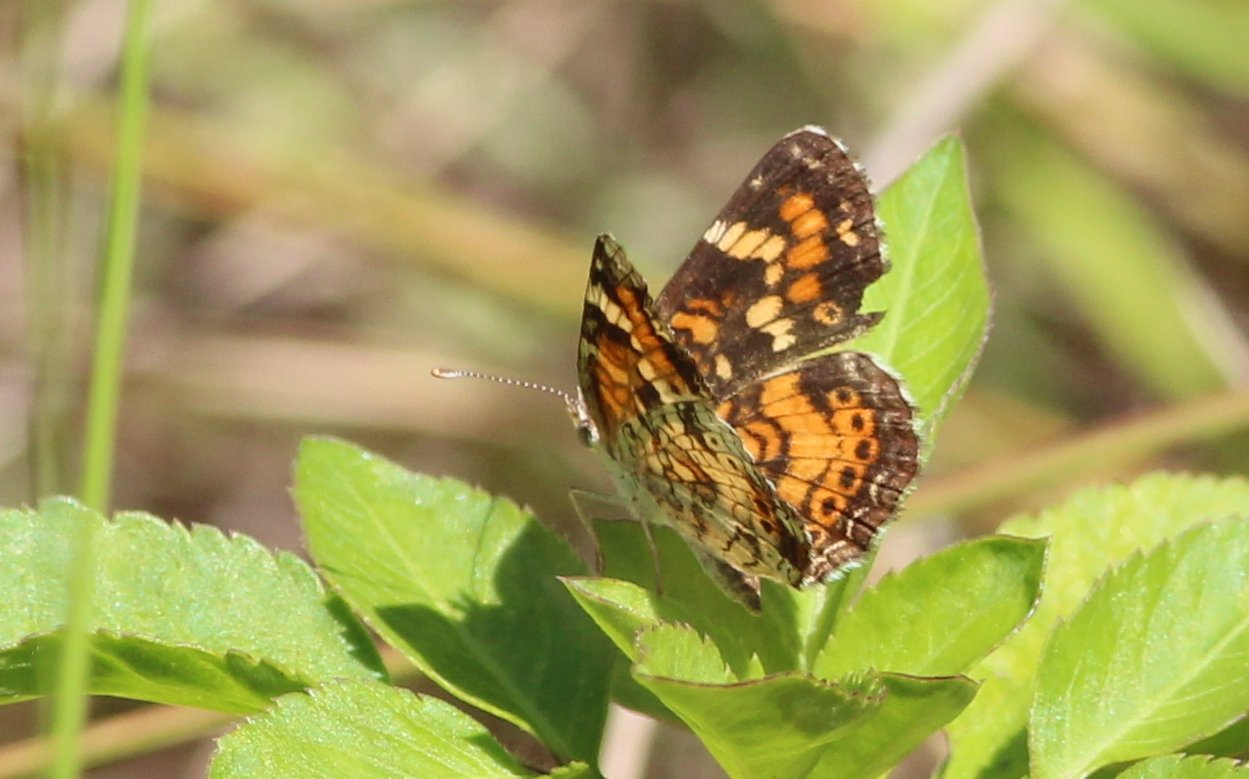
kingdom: Animalia
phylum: Arthropoda
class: Insecta
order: Lepidoptera
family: Nymphalidae
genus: Phyciodes
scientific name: Phyciodes phaon
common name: Phaon Crescent
